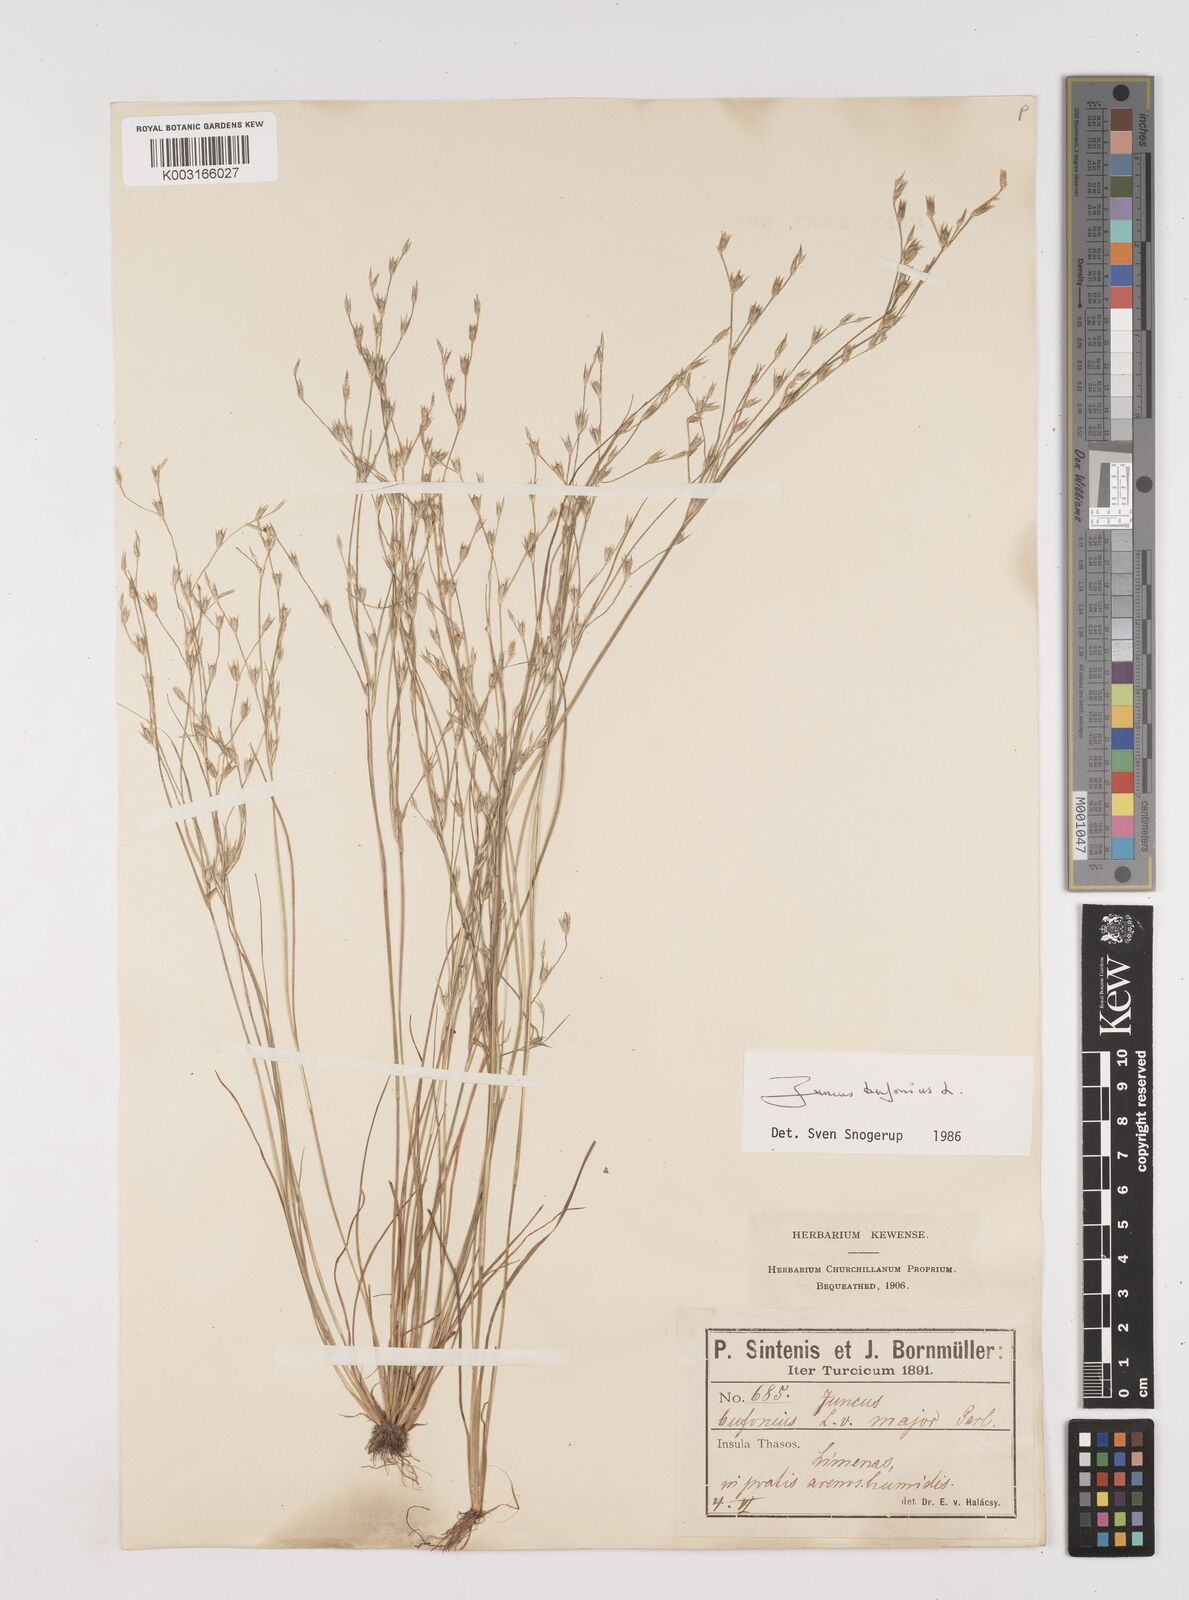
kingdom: Plantae
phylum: Tracheophyta
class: Liliopsida
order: Poales
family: Juncaceae
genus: Juncus
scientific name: Juncus bufonius
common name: Toad rush
